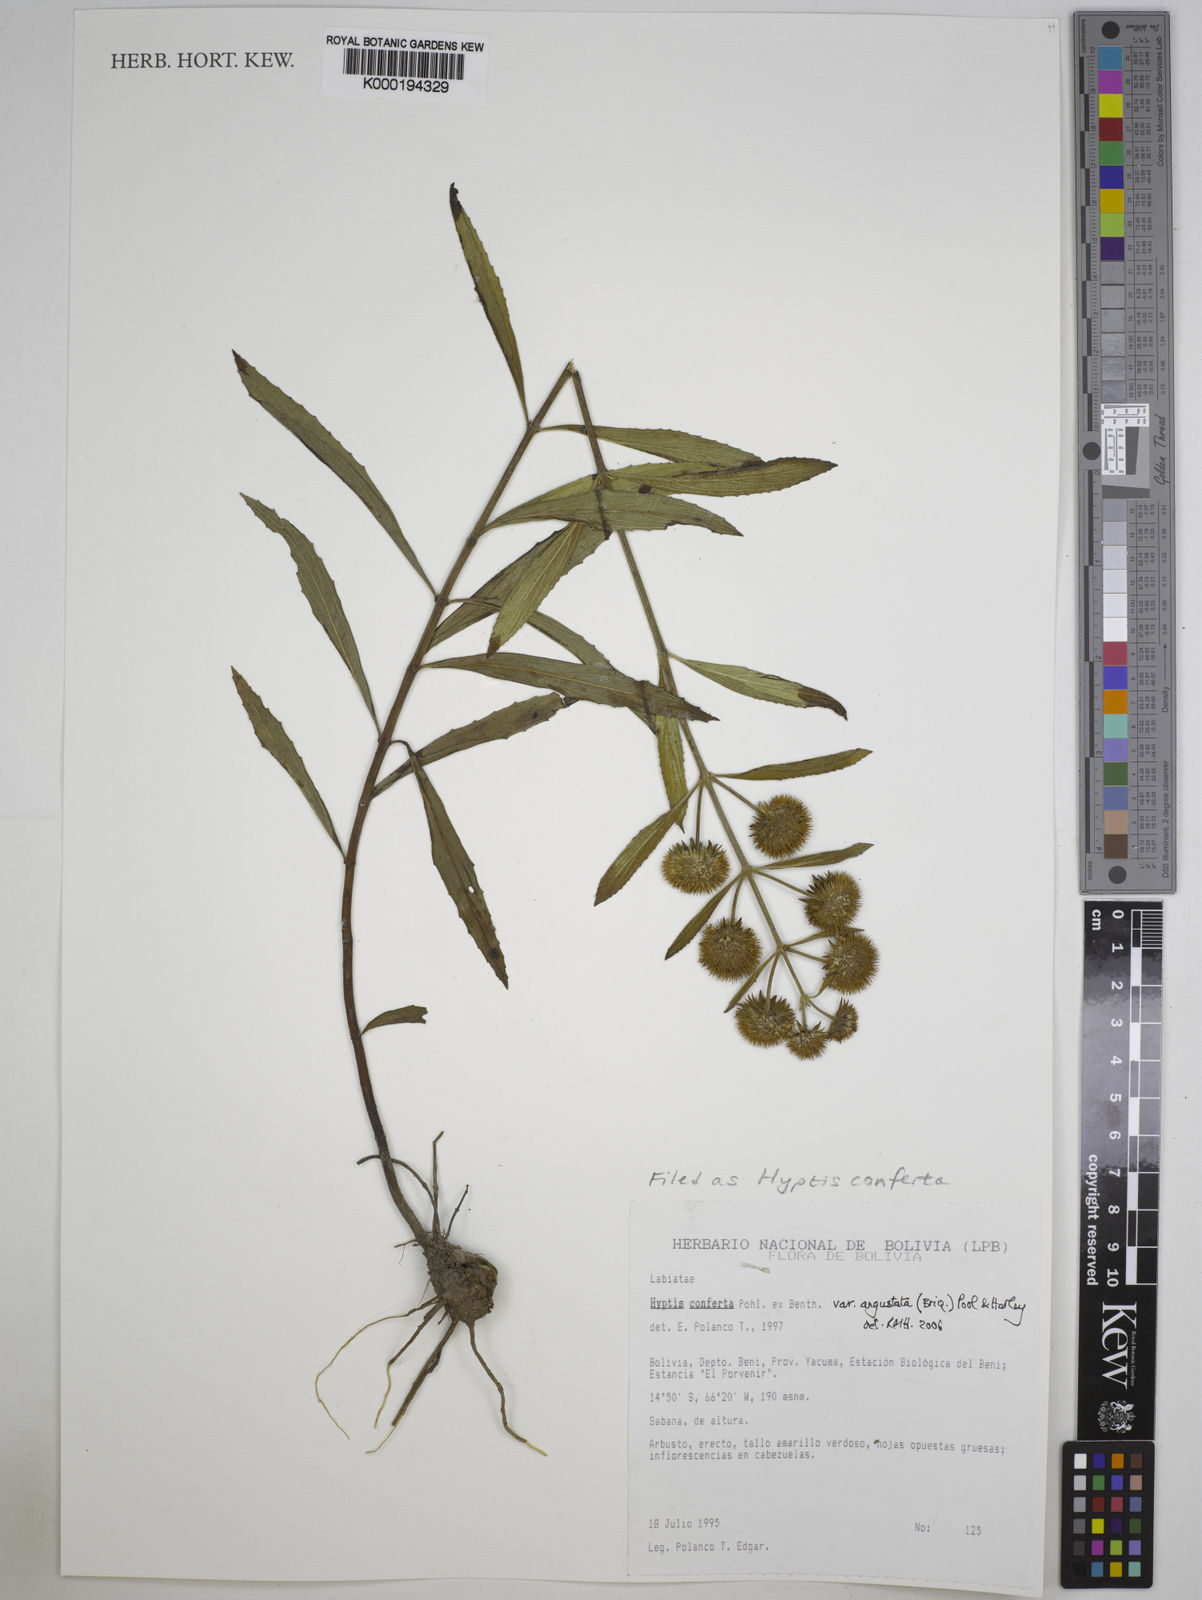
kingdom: Plantae
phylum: Tracheophyta
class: Magnoliopsida
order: Lamiales
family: Lamiaceae
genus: Hyptis
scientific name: Hyptis conferta
